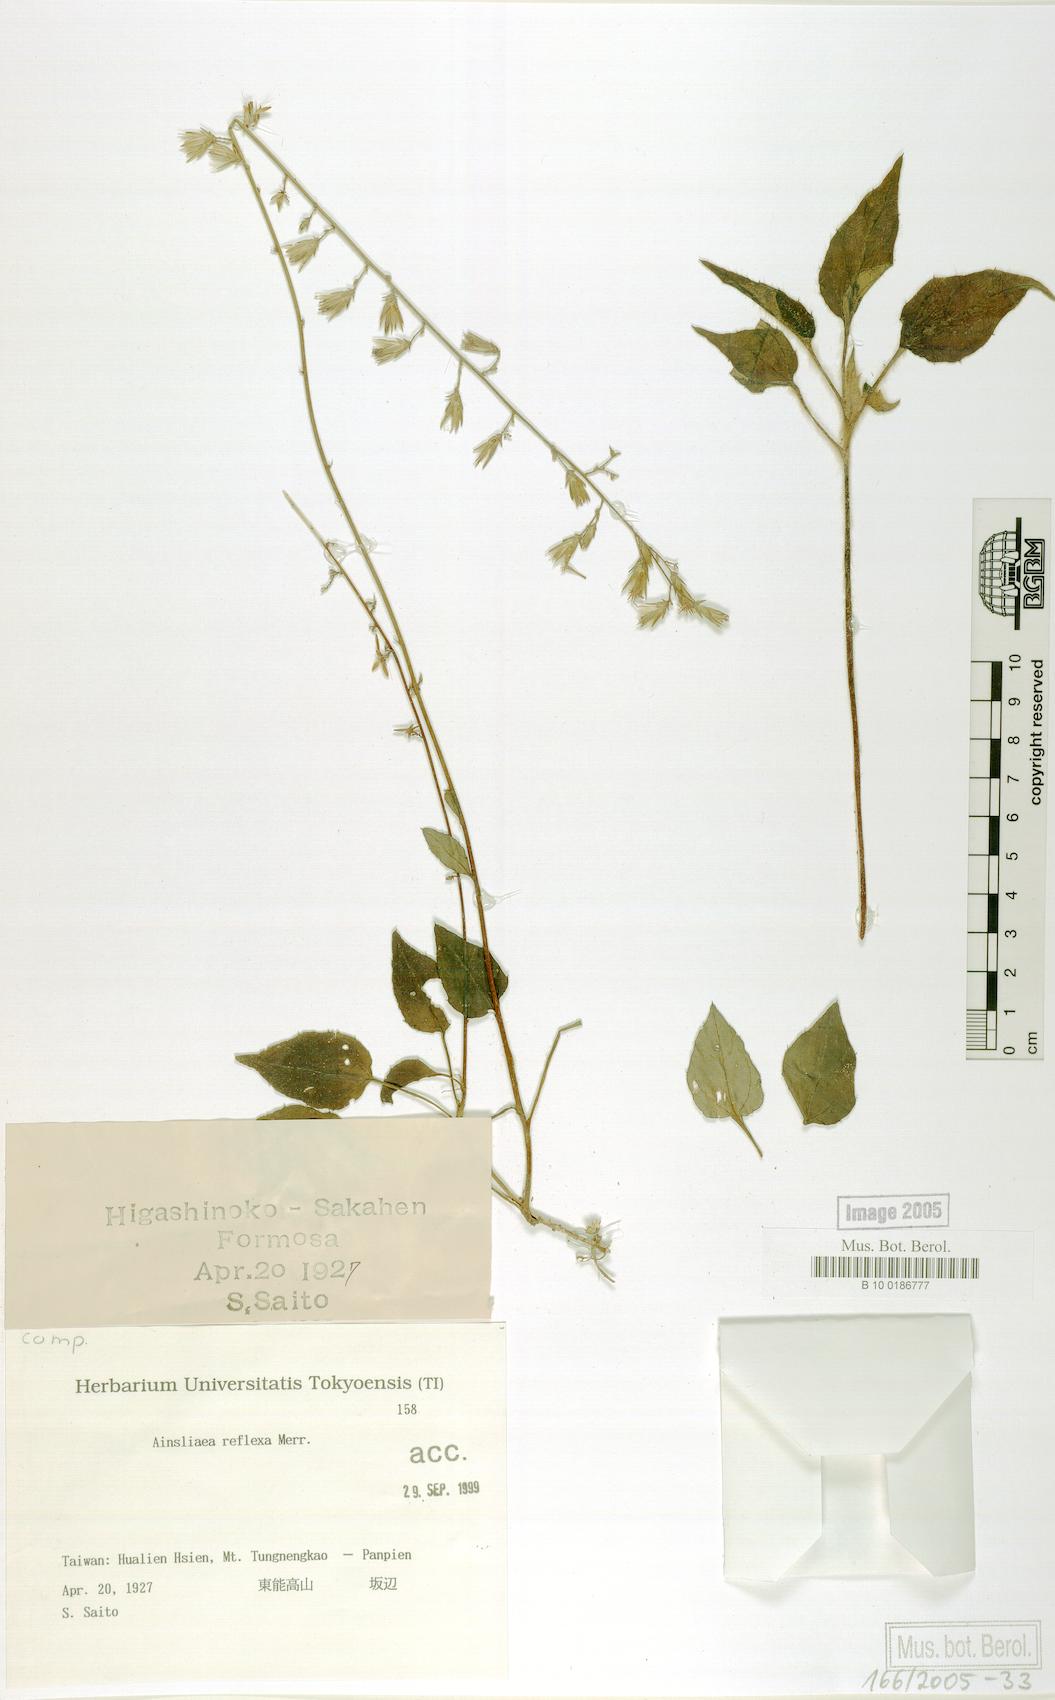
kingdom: Plantae
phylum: Tracheophyta
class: Magnoliopsida
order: Asterales
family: Asteraceae
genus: Ainsliaea
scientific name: Ainsliaea reflexa
